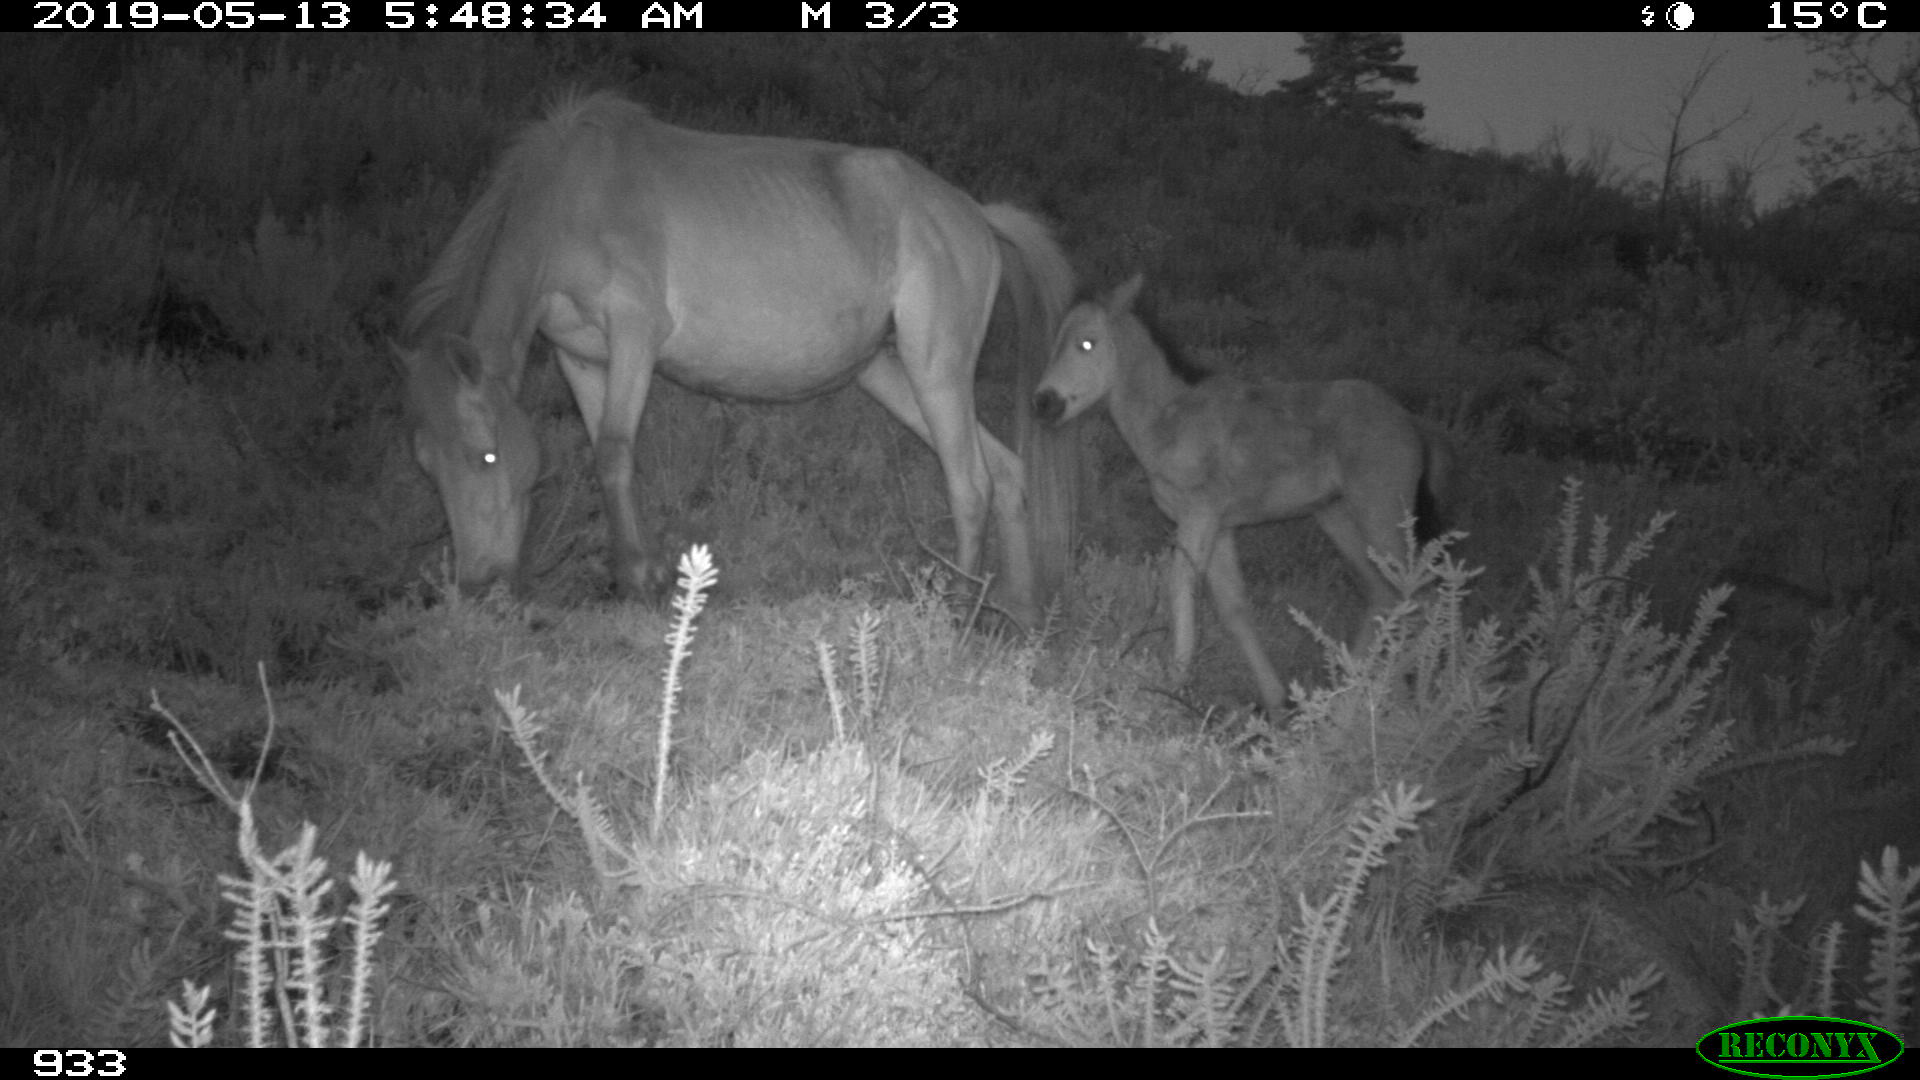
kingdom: Animalia
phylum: Chordata
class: Mammalia
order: Perissodactyla
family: Equidae
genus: Equus
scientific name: Equus caballus
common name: Horse
